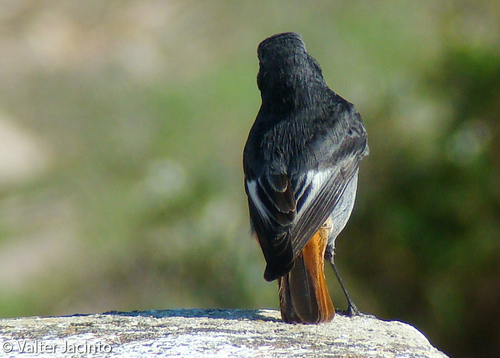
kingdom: Animalia
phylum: Chordata
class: Aves
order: Passeriformes
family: Muscicapidae
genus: Phoenicurus
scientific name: Phoenicurus ochruros
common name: Black redstart
